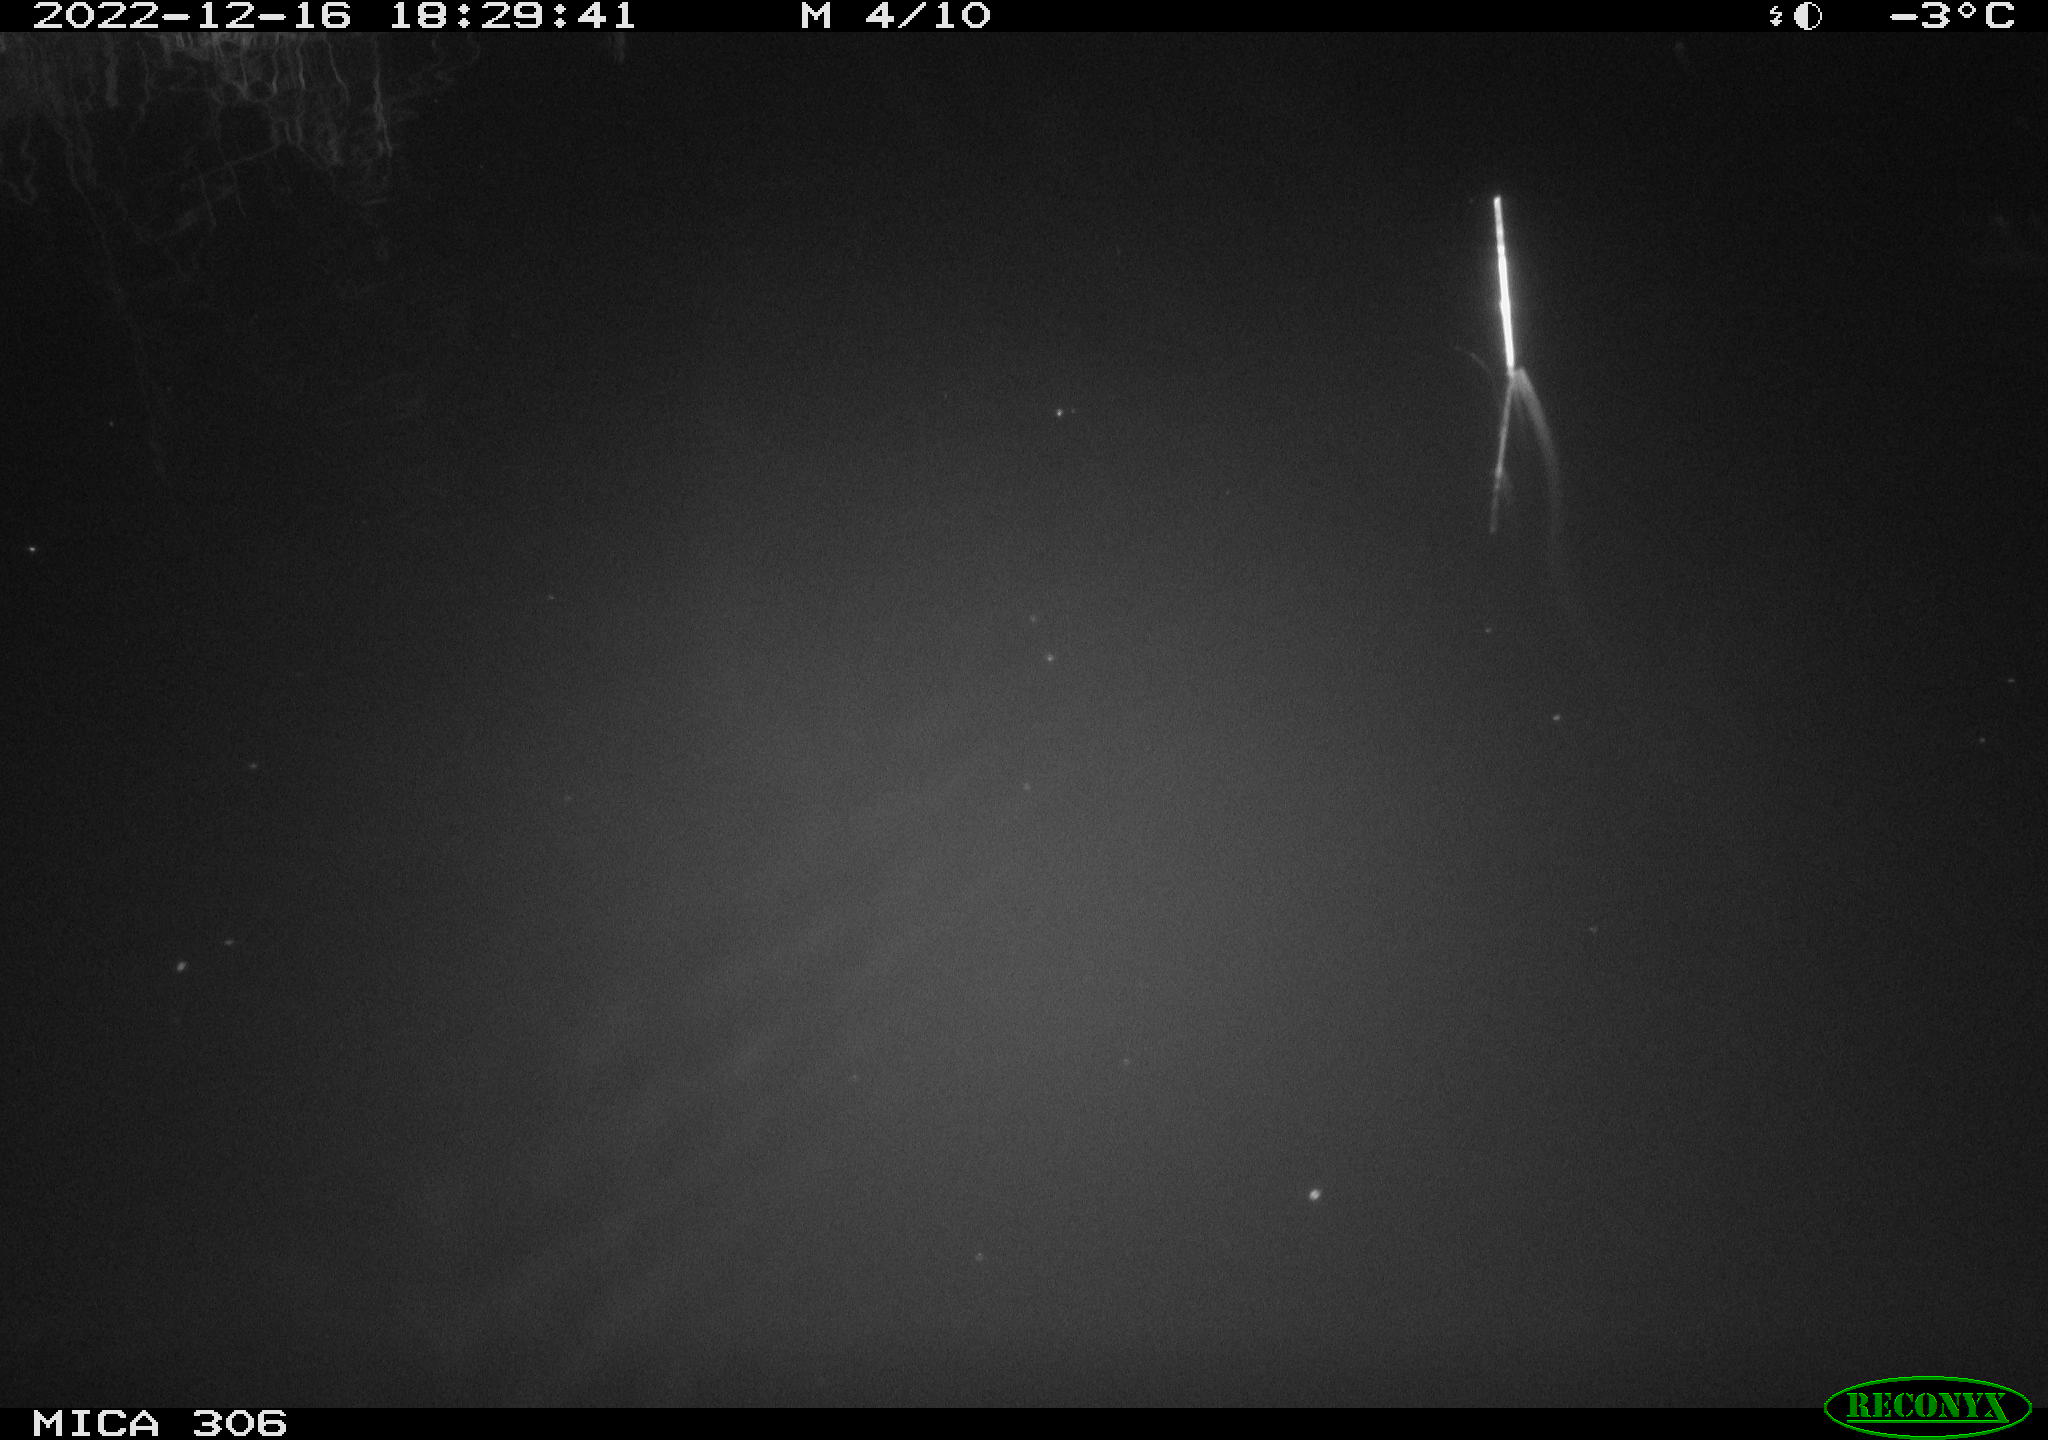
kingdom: Animalia
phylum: Chordata
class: Mammalia
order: Rodentia
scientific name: Rodentia
